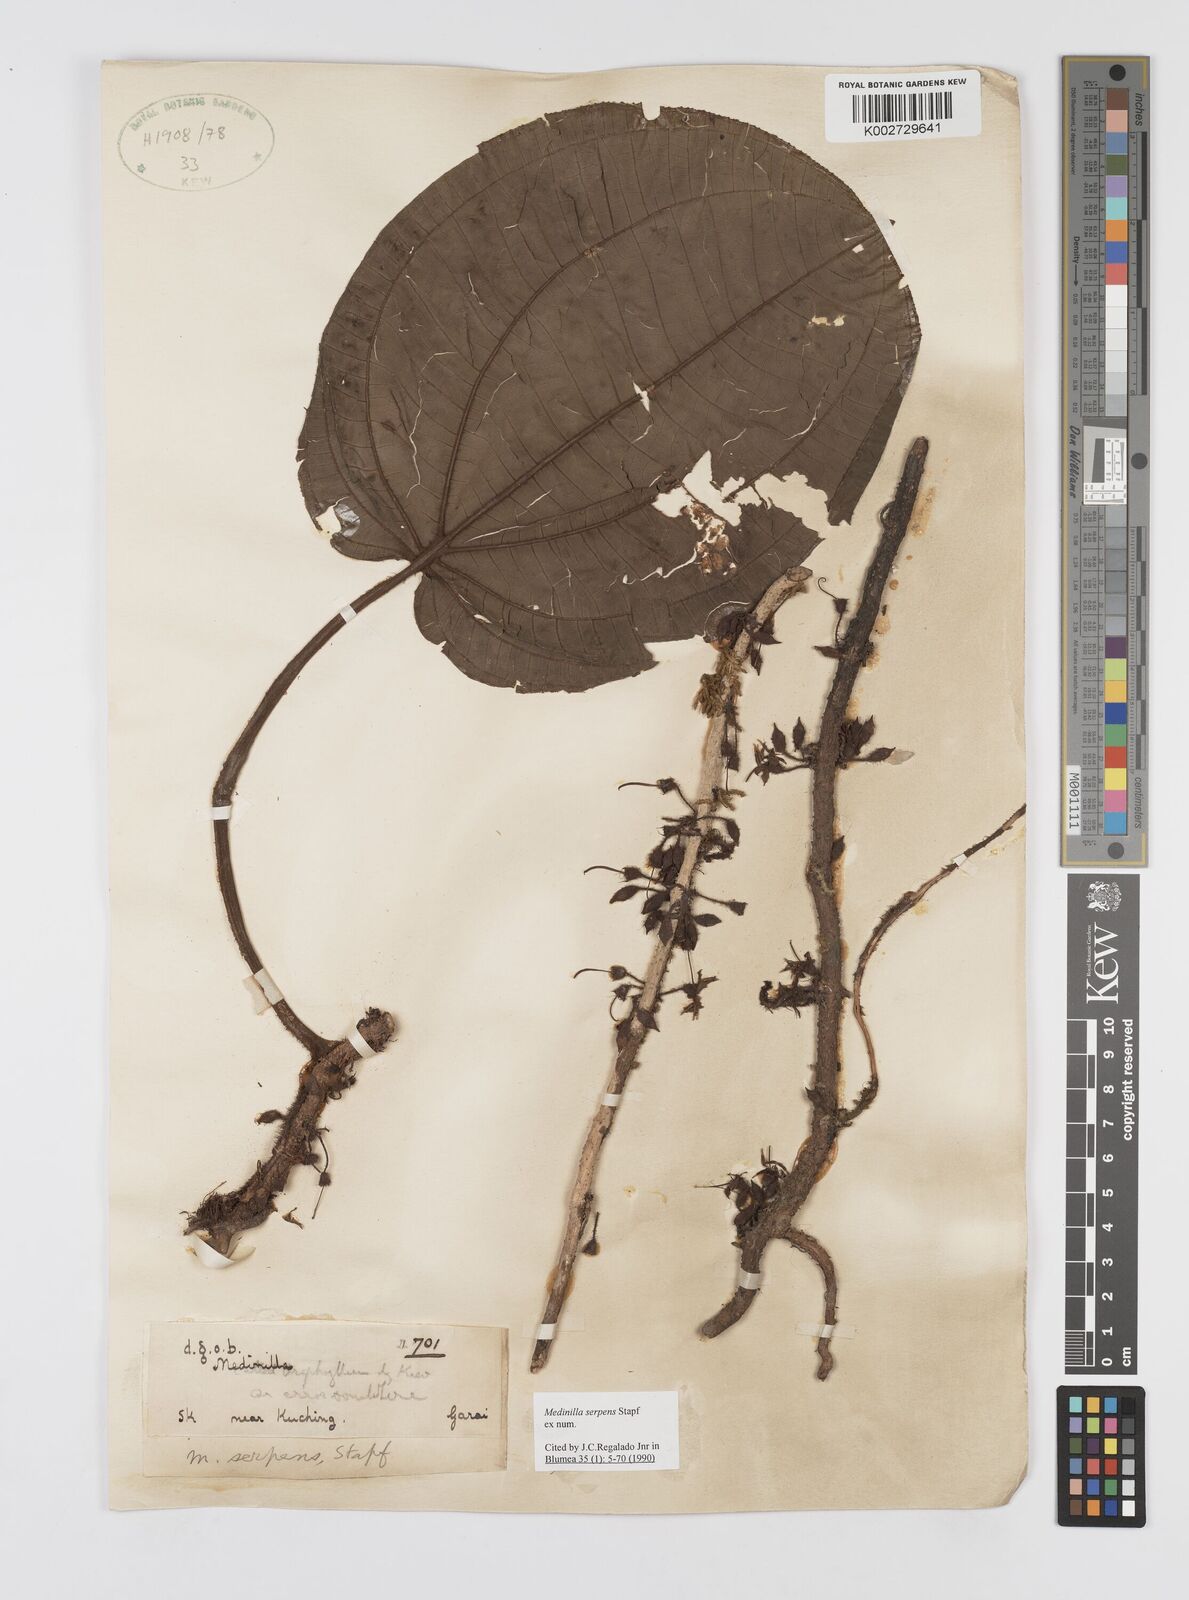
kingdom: Plantae
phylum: Tracheophyta
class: Magnoliopsida
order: Myrtales
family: Melastomataceae
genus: Heteroblemma
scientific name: Heteroblemma serpens
